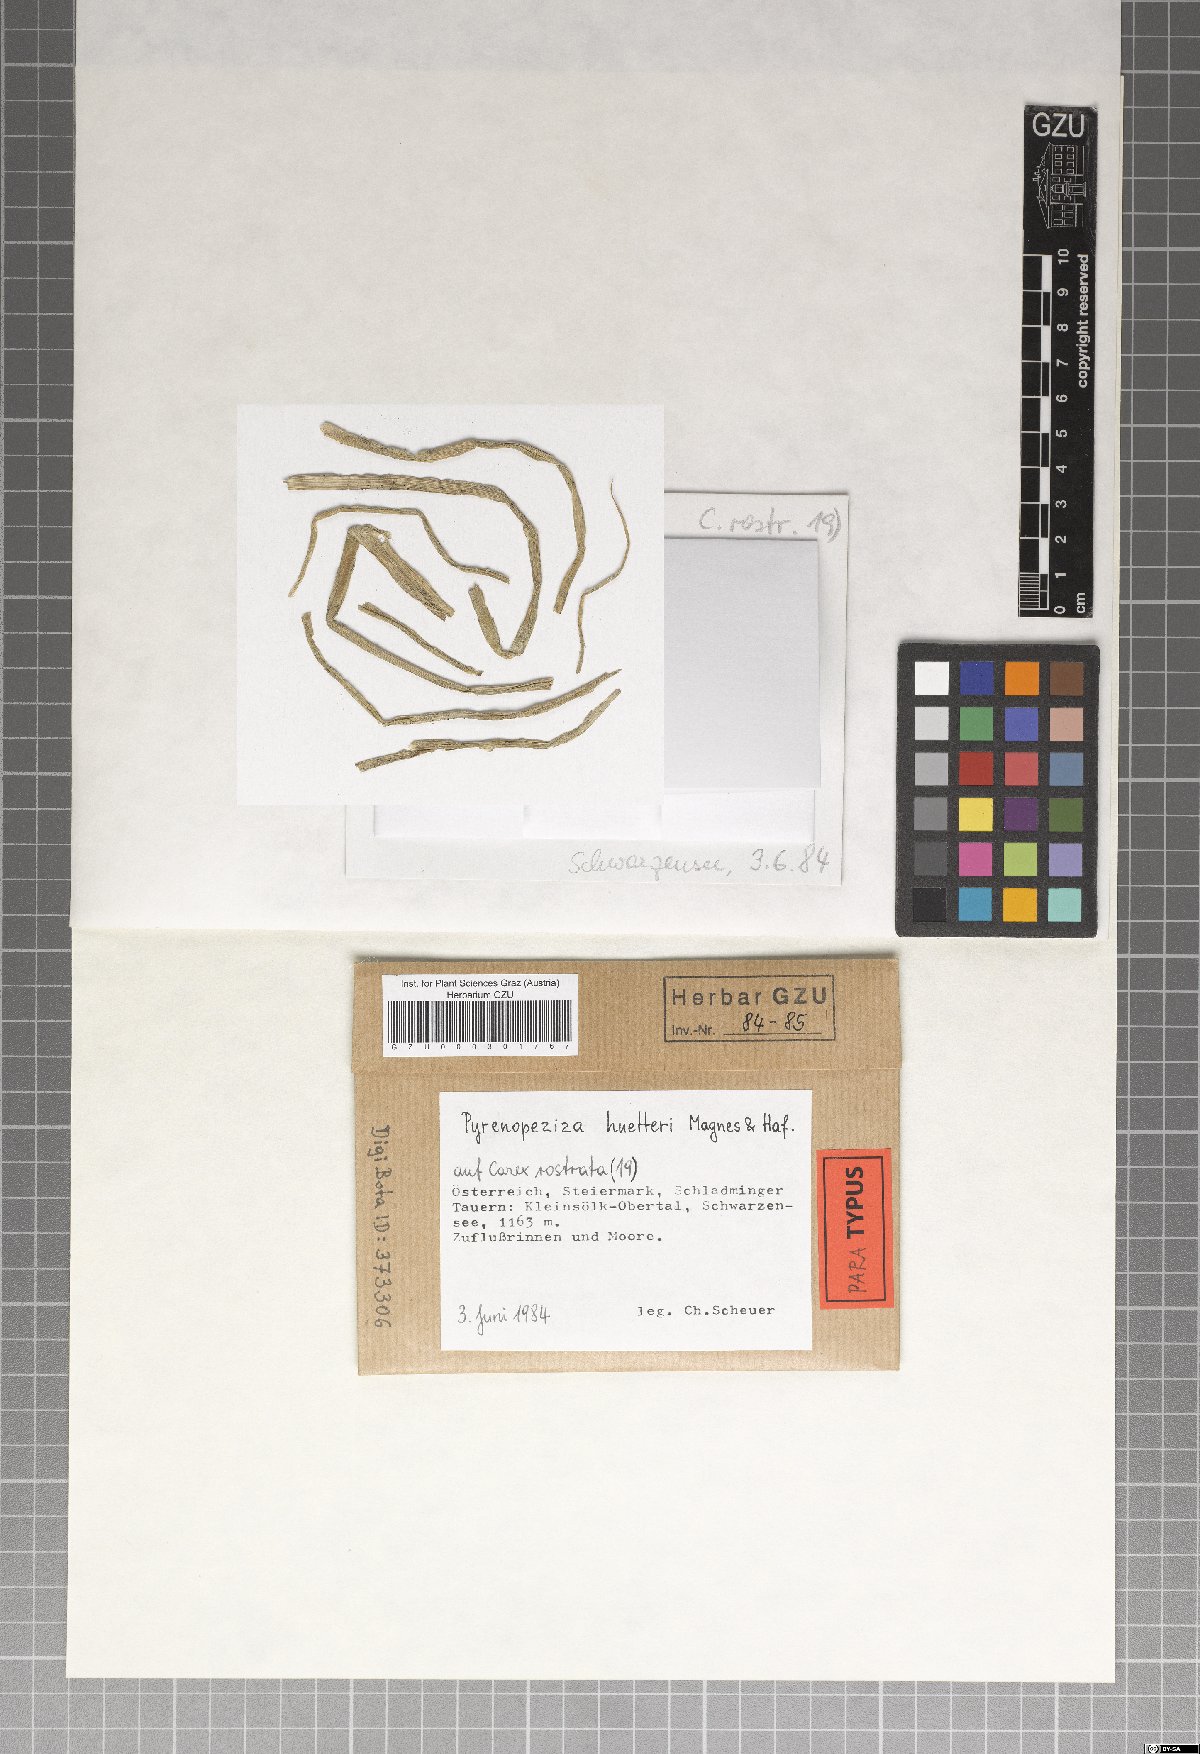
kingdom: Fungi
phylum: Ascomycota
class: Leotiomycetes
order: Helotiales
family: Ploettnerulaceae
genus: Pyrenopeziza
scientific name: Pyrenopeziza huetteri
